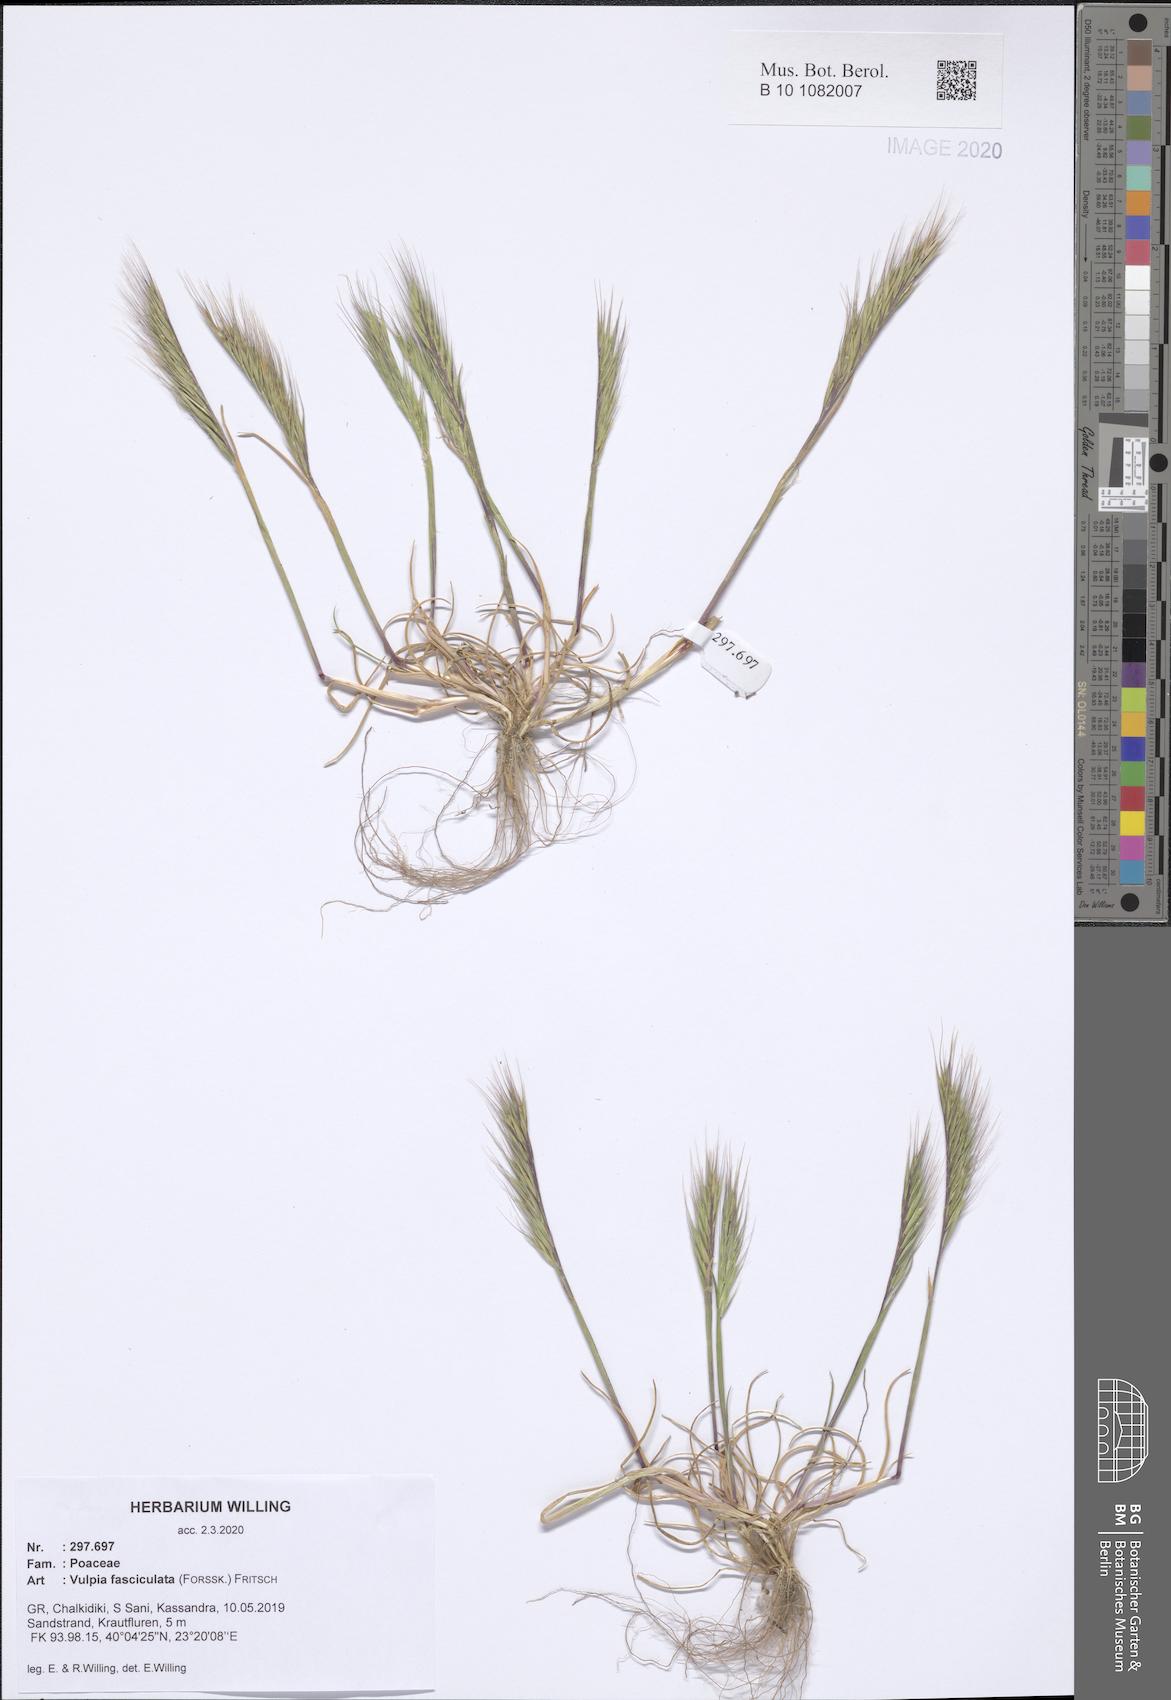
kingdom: Plantae
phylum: Tracheophyta
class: Liliopsida
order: Poales
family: Poaceae
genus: Festuca
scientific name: Festuca fasciculata
